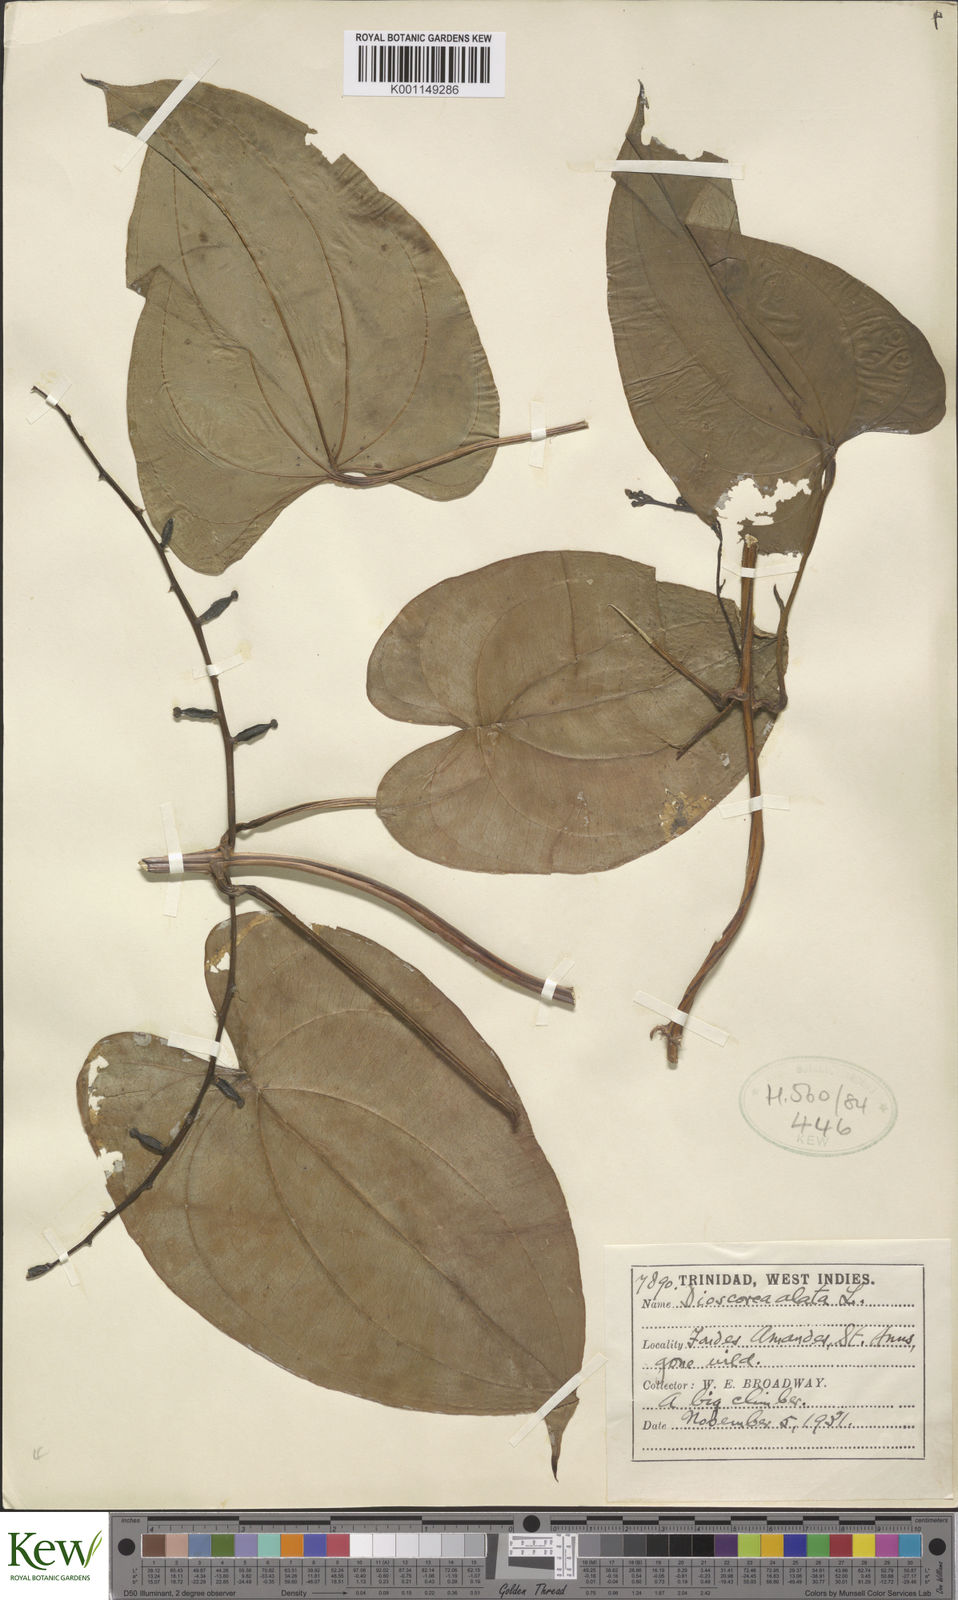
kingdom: Plantae
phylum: Tracheophyta
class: Liliopsida
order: Dioscoreales
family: Dioscoreaceae
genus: Dioscorea
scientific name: Dioscorea alata
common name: Water yam
